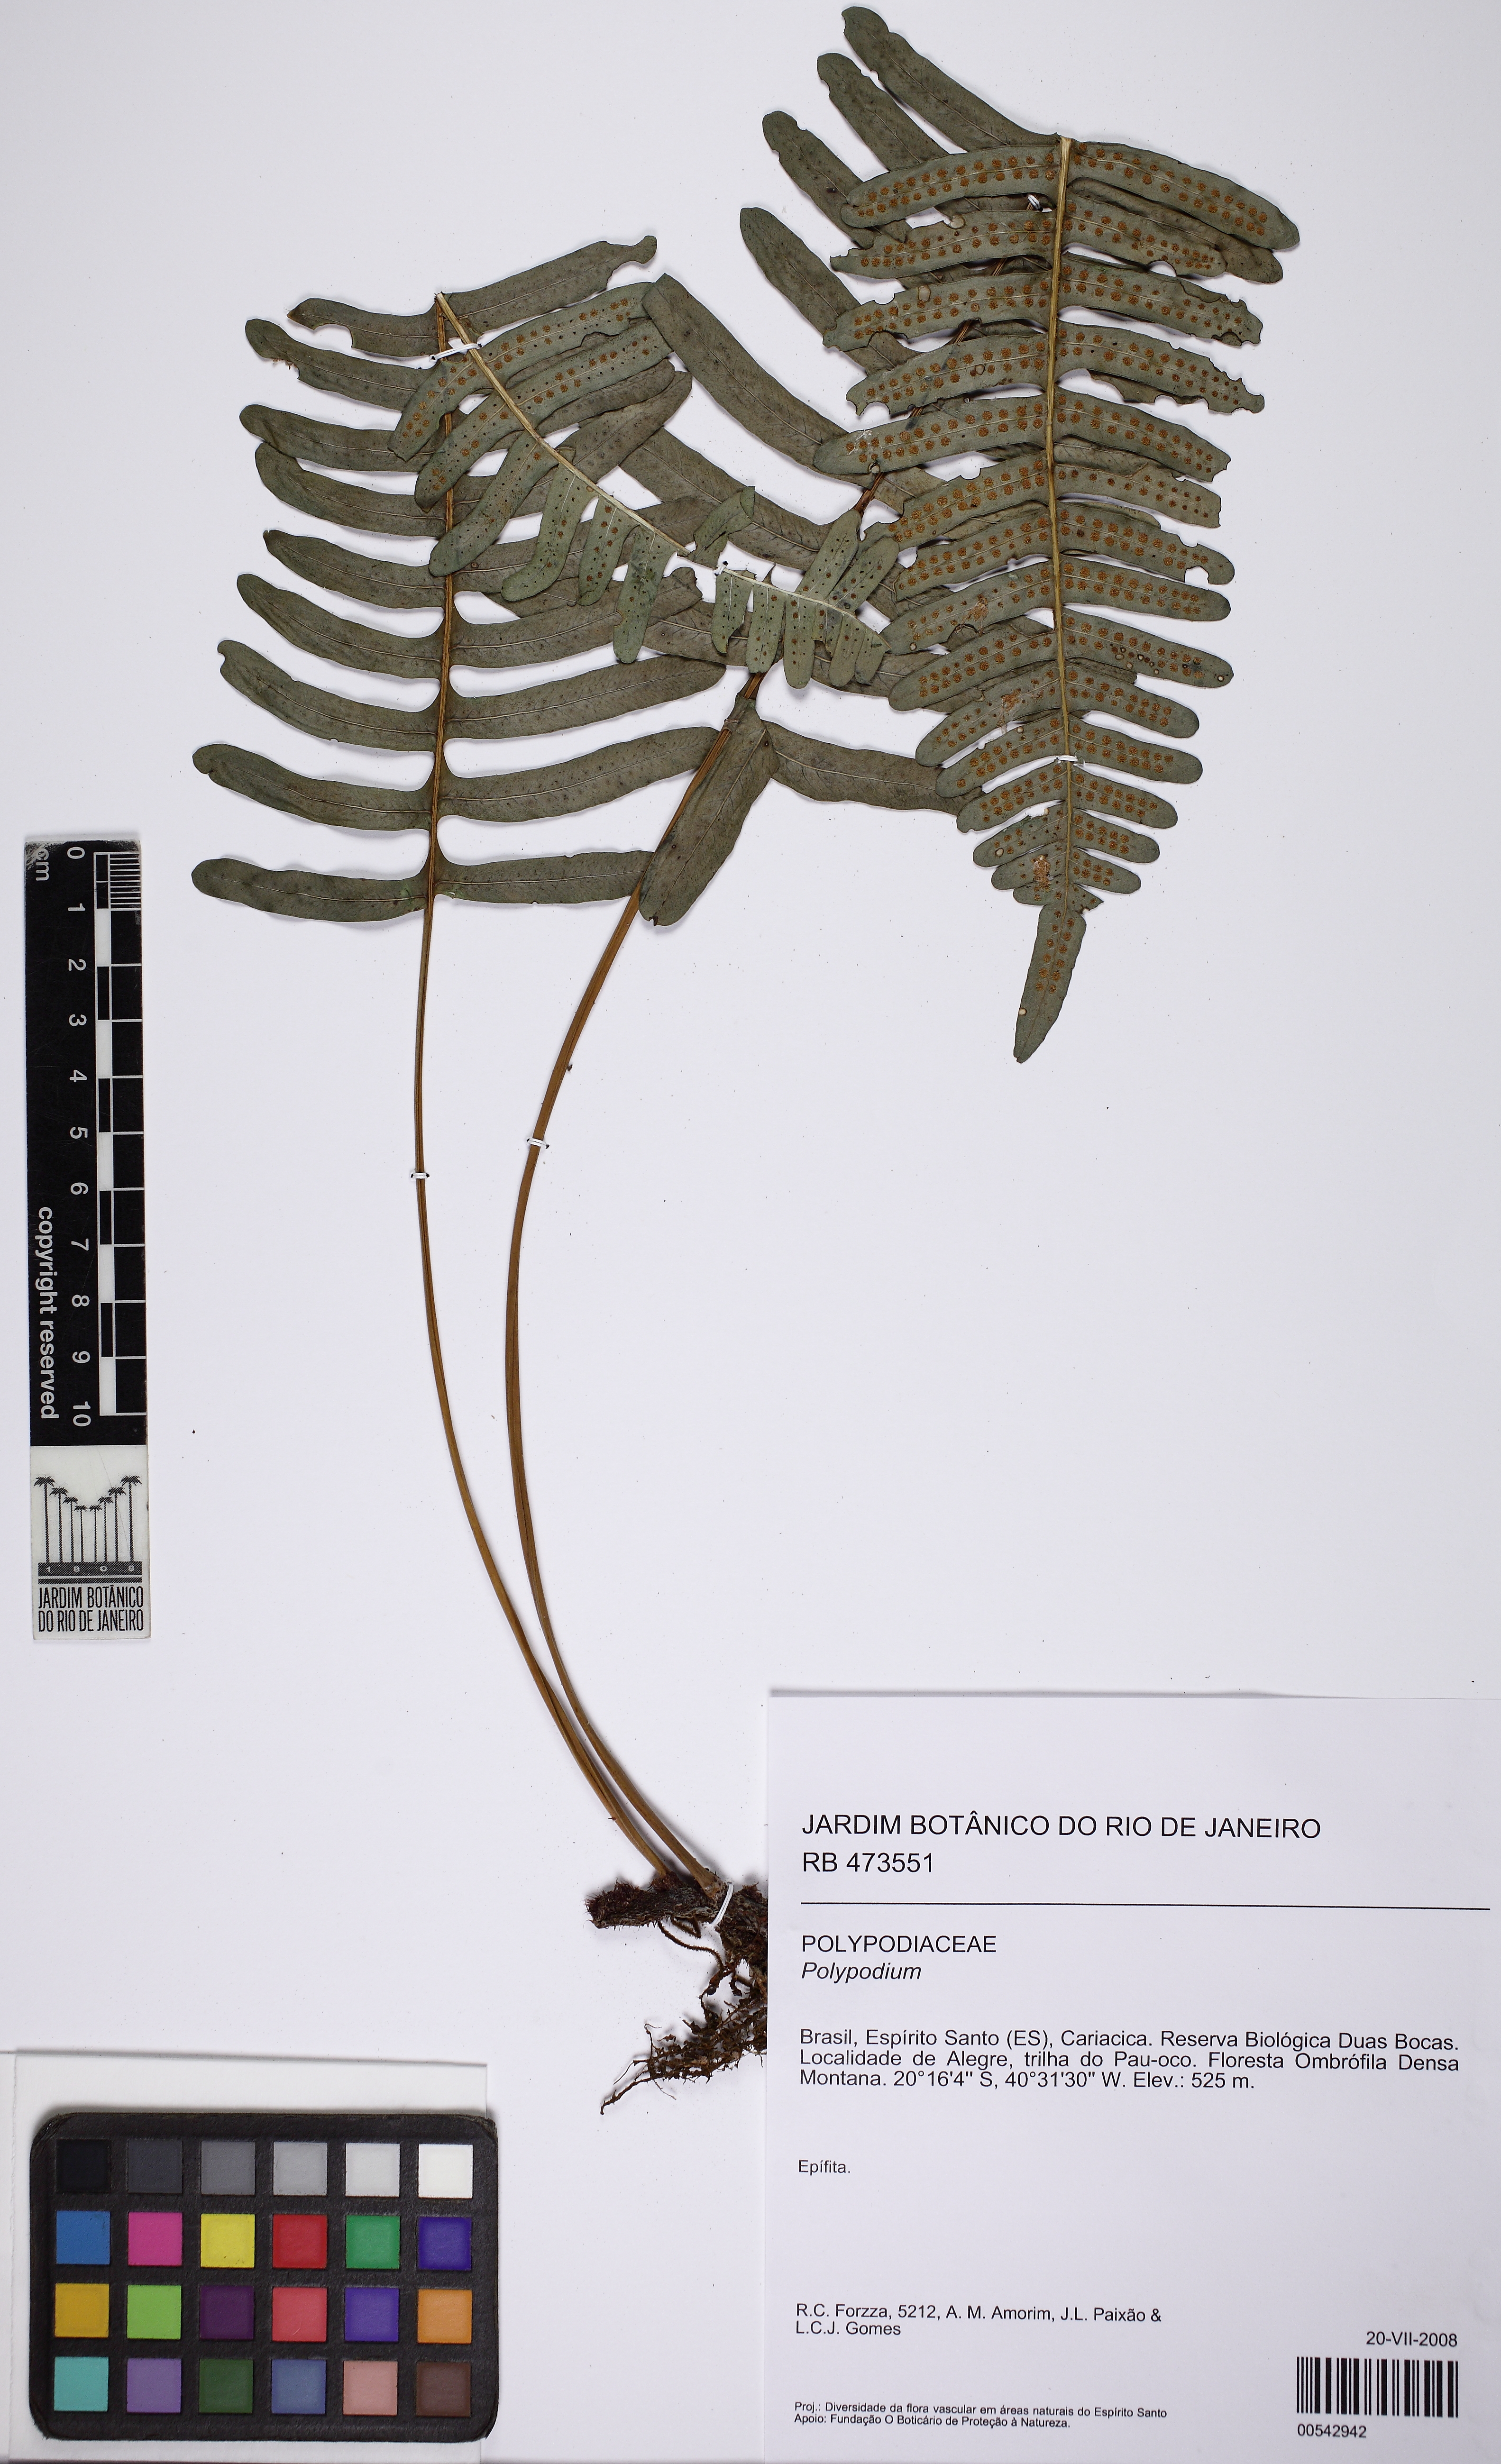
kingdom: Plantae
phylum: Tracheophyta
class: Polypodiopsida
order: Polypodiales
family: Polypodiaceae
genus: Serpocaulon
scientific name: Serpocaulon catharinae
